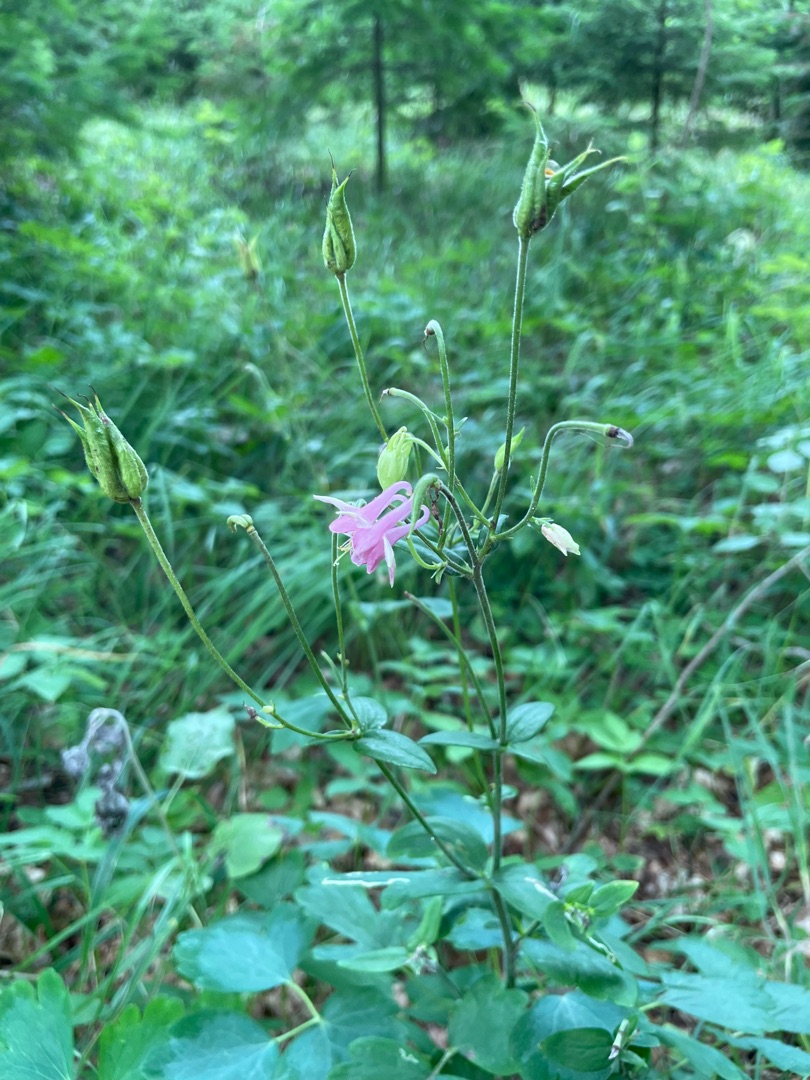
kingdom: Plantae
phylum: Tracheophyta
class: Magnoliopsida
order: Ranunculales
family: Ranunculaceae
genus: Aquilegia
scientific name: Aquilegia vulgaris
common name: Akeleje
